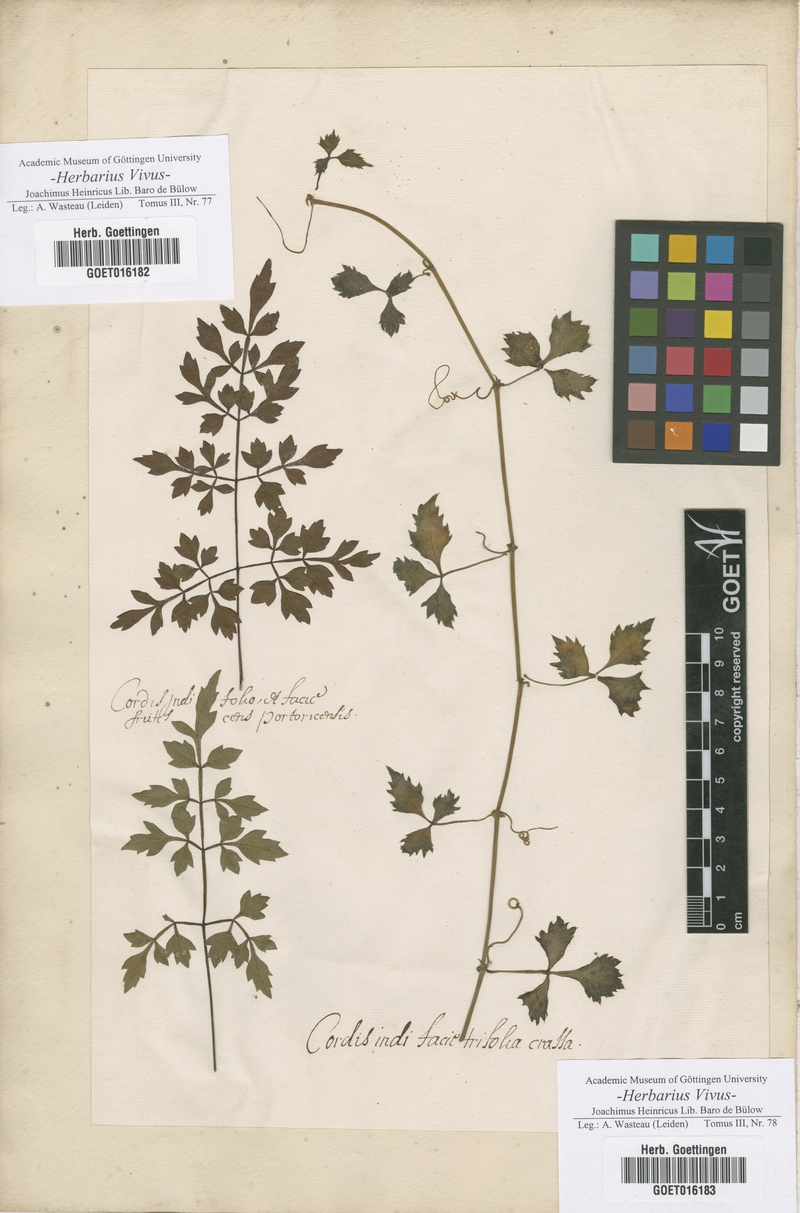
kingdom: Plantae
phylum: Tracheophyta
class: Magnoliopsida
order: Sapindales
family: Sapindaceae
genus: Serjania
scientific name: Serjania polyphylla
